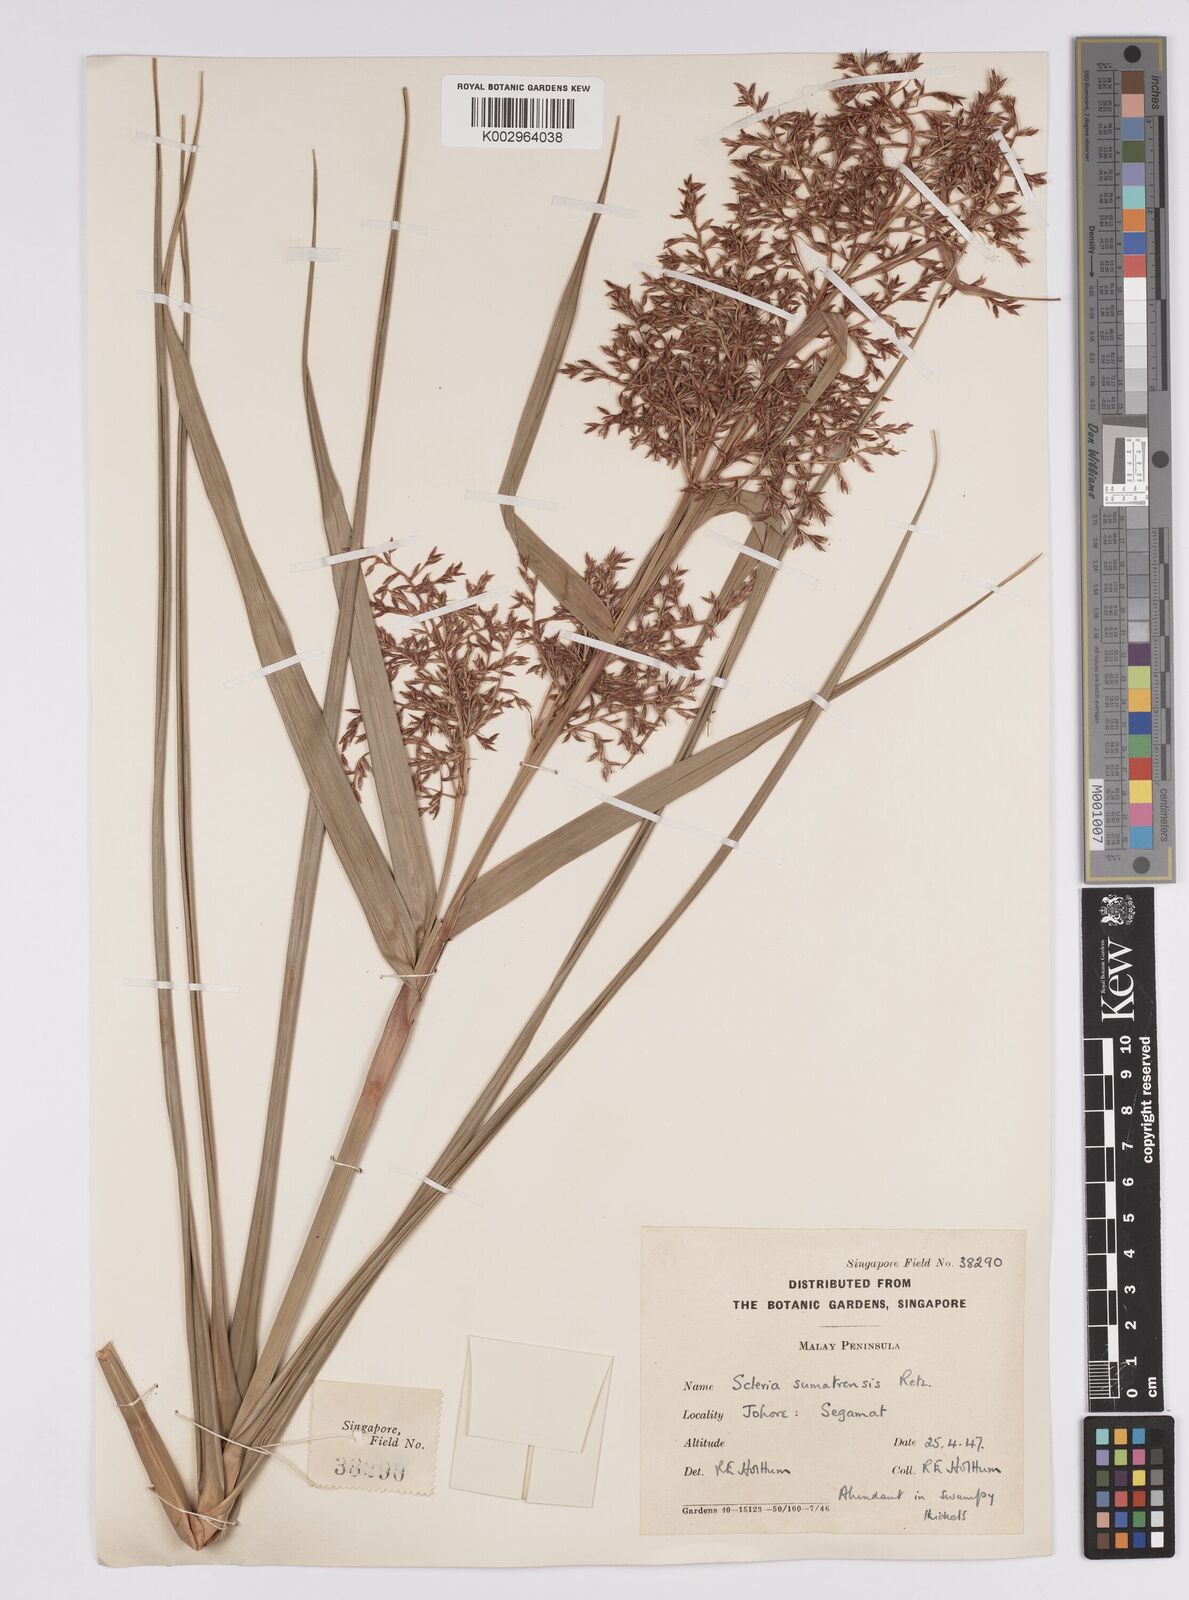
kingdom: Plantae
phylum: Tracheophyta
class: Liliopsida
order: Poales
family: Cyperaceae
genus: Scleria
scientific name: Scleria sumatrensis
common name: Sumatran scleria
